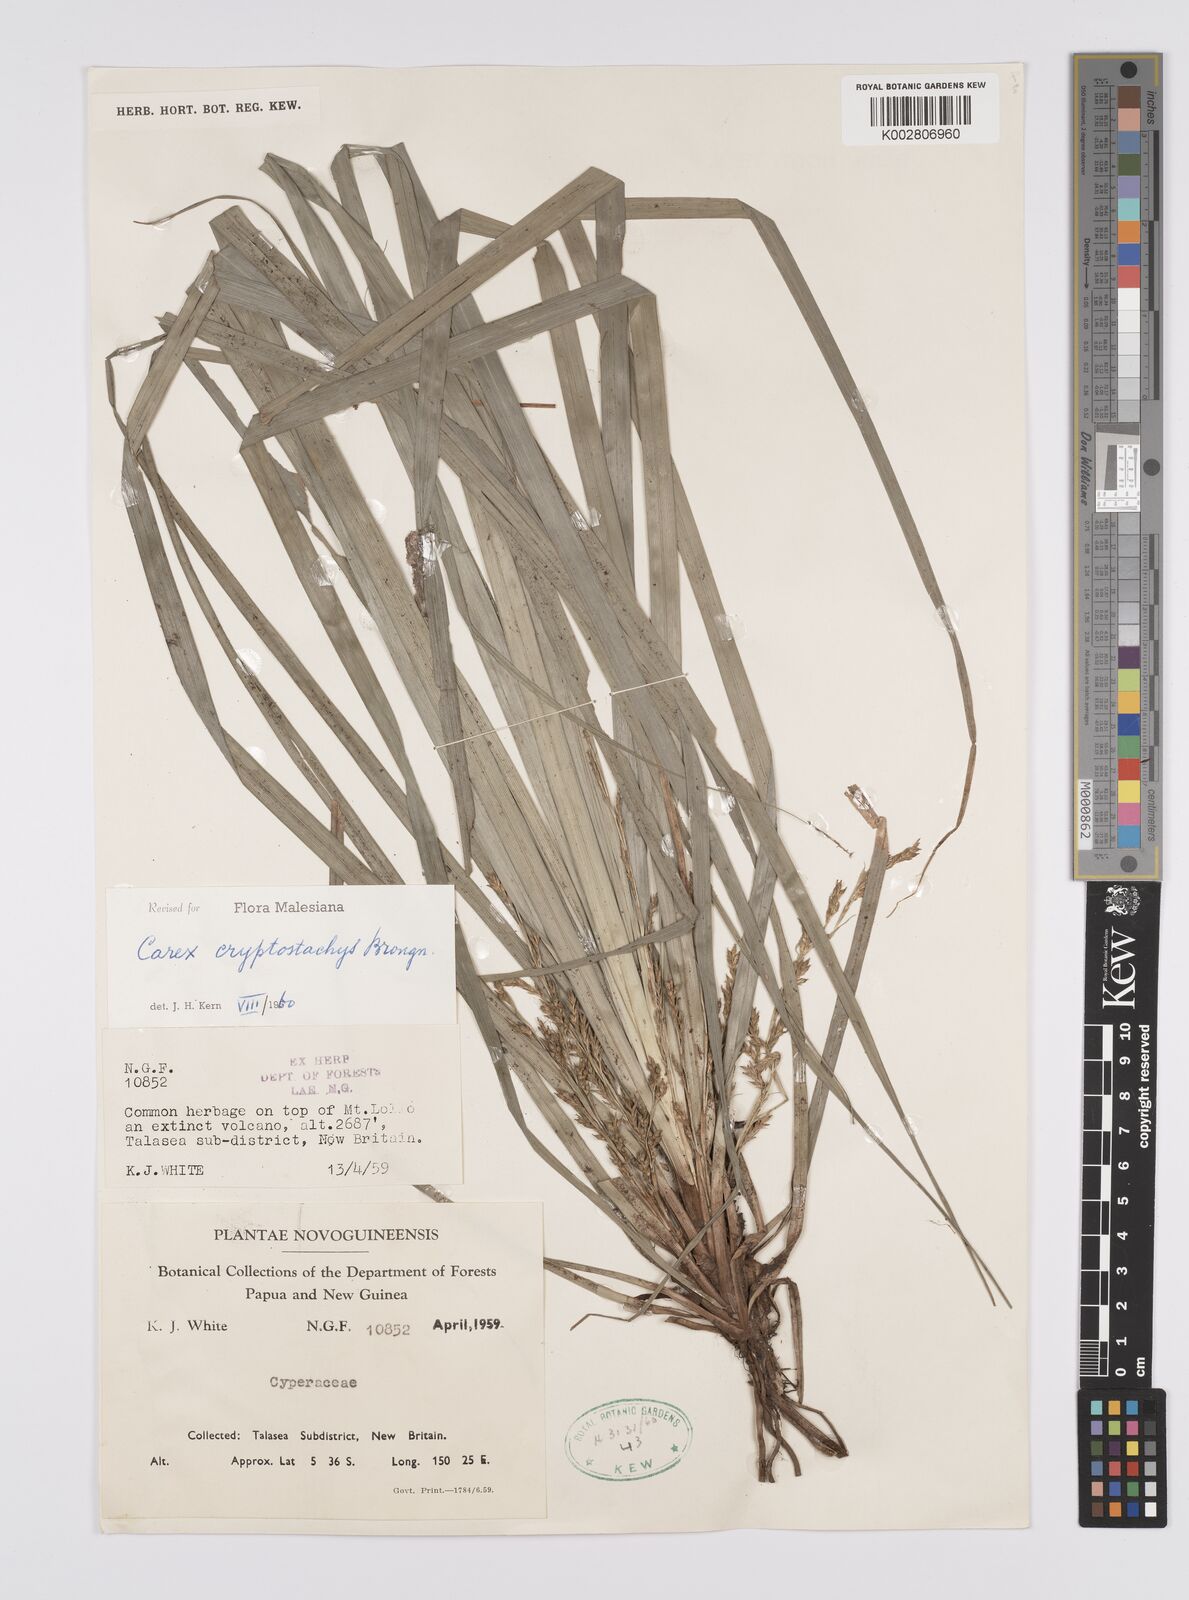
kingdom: Plantae
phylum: Tracheophyta
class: Liliopsida
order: Poales
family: Cyperaceae
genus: Carex
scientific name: Carex cryptostachys
